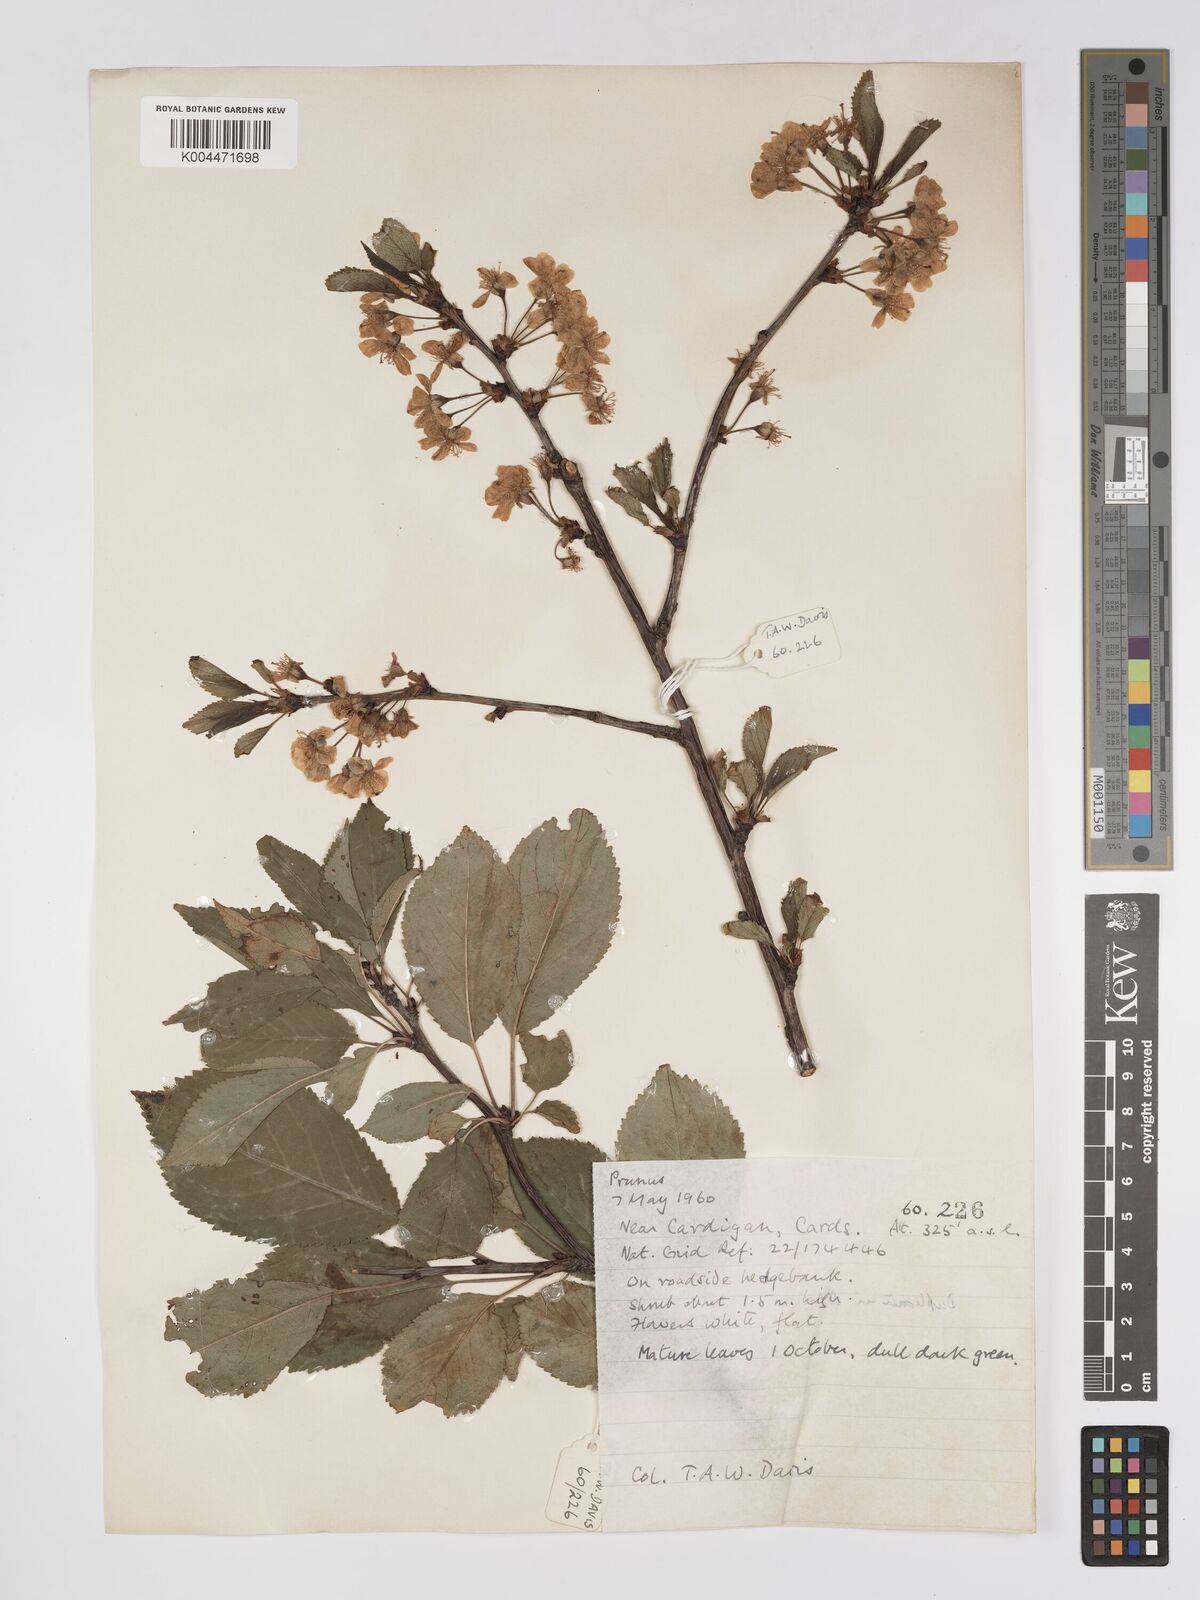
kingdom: Plantae
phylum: Tracheophyta
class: Magnoliopsida
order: Rosales
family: Rosaceae
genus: Prunus
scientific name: Prunus
